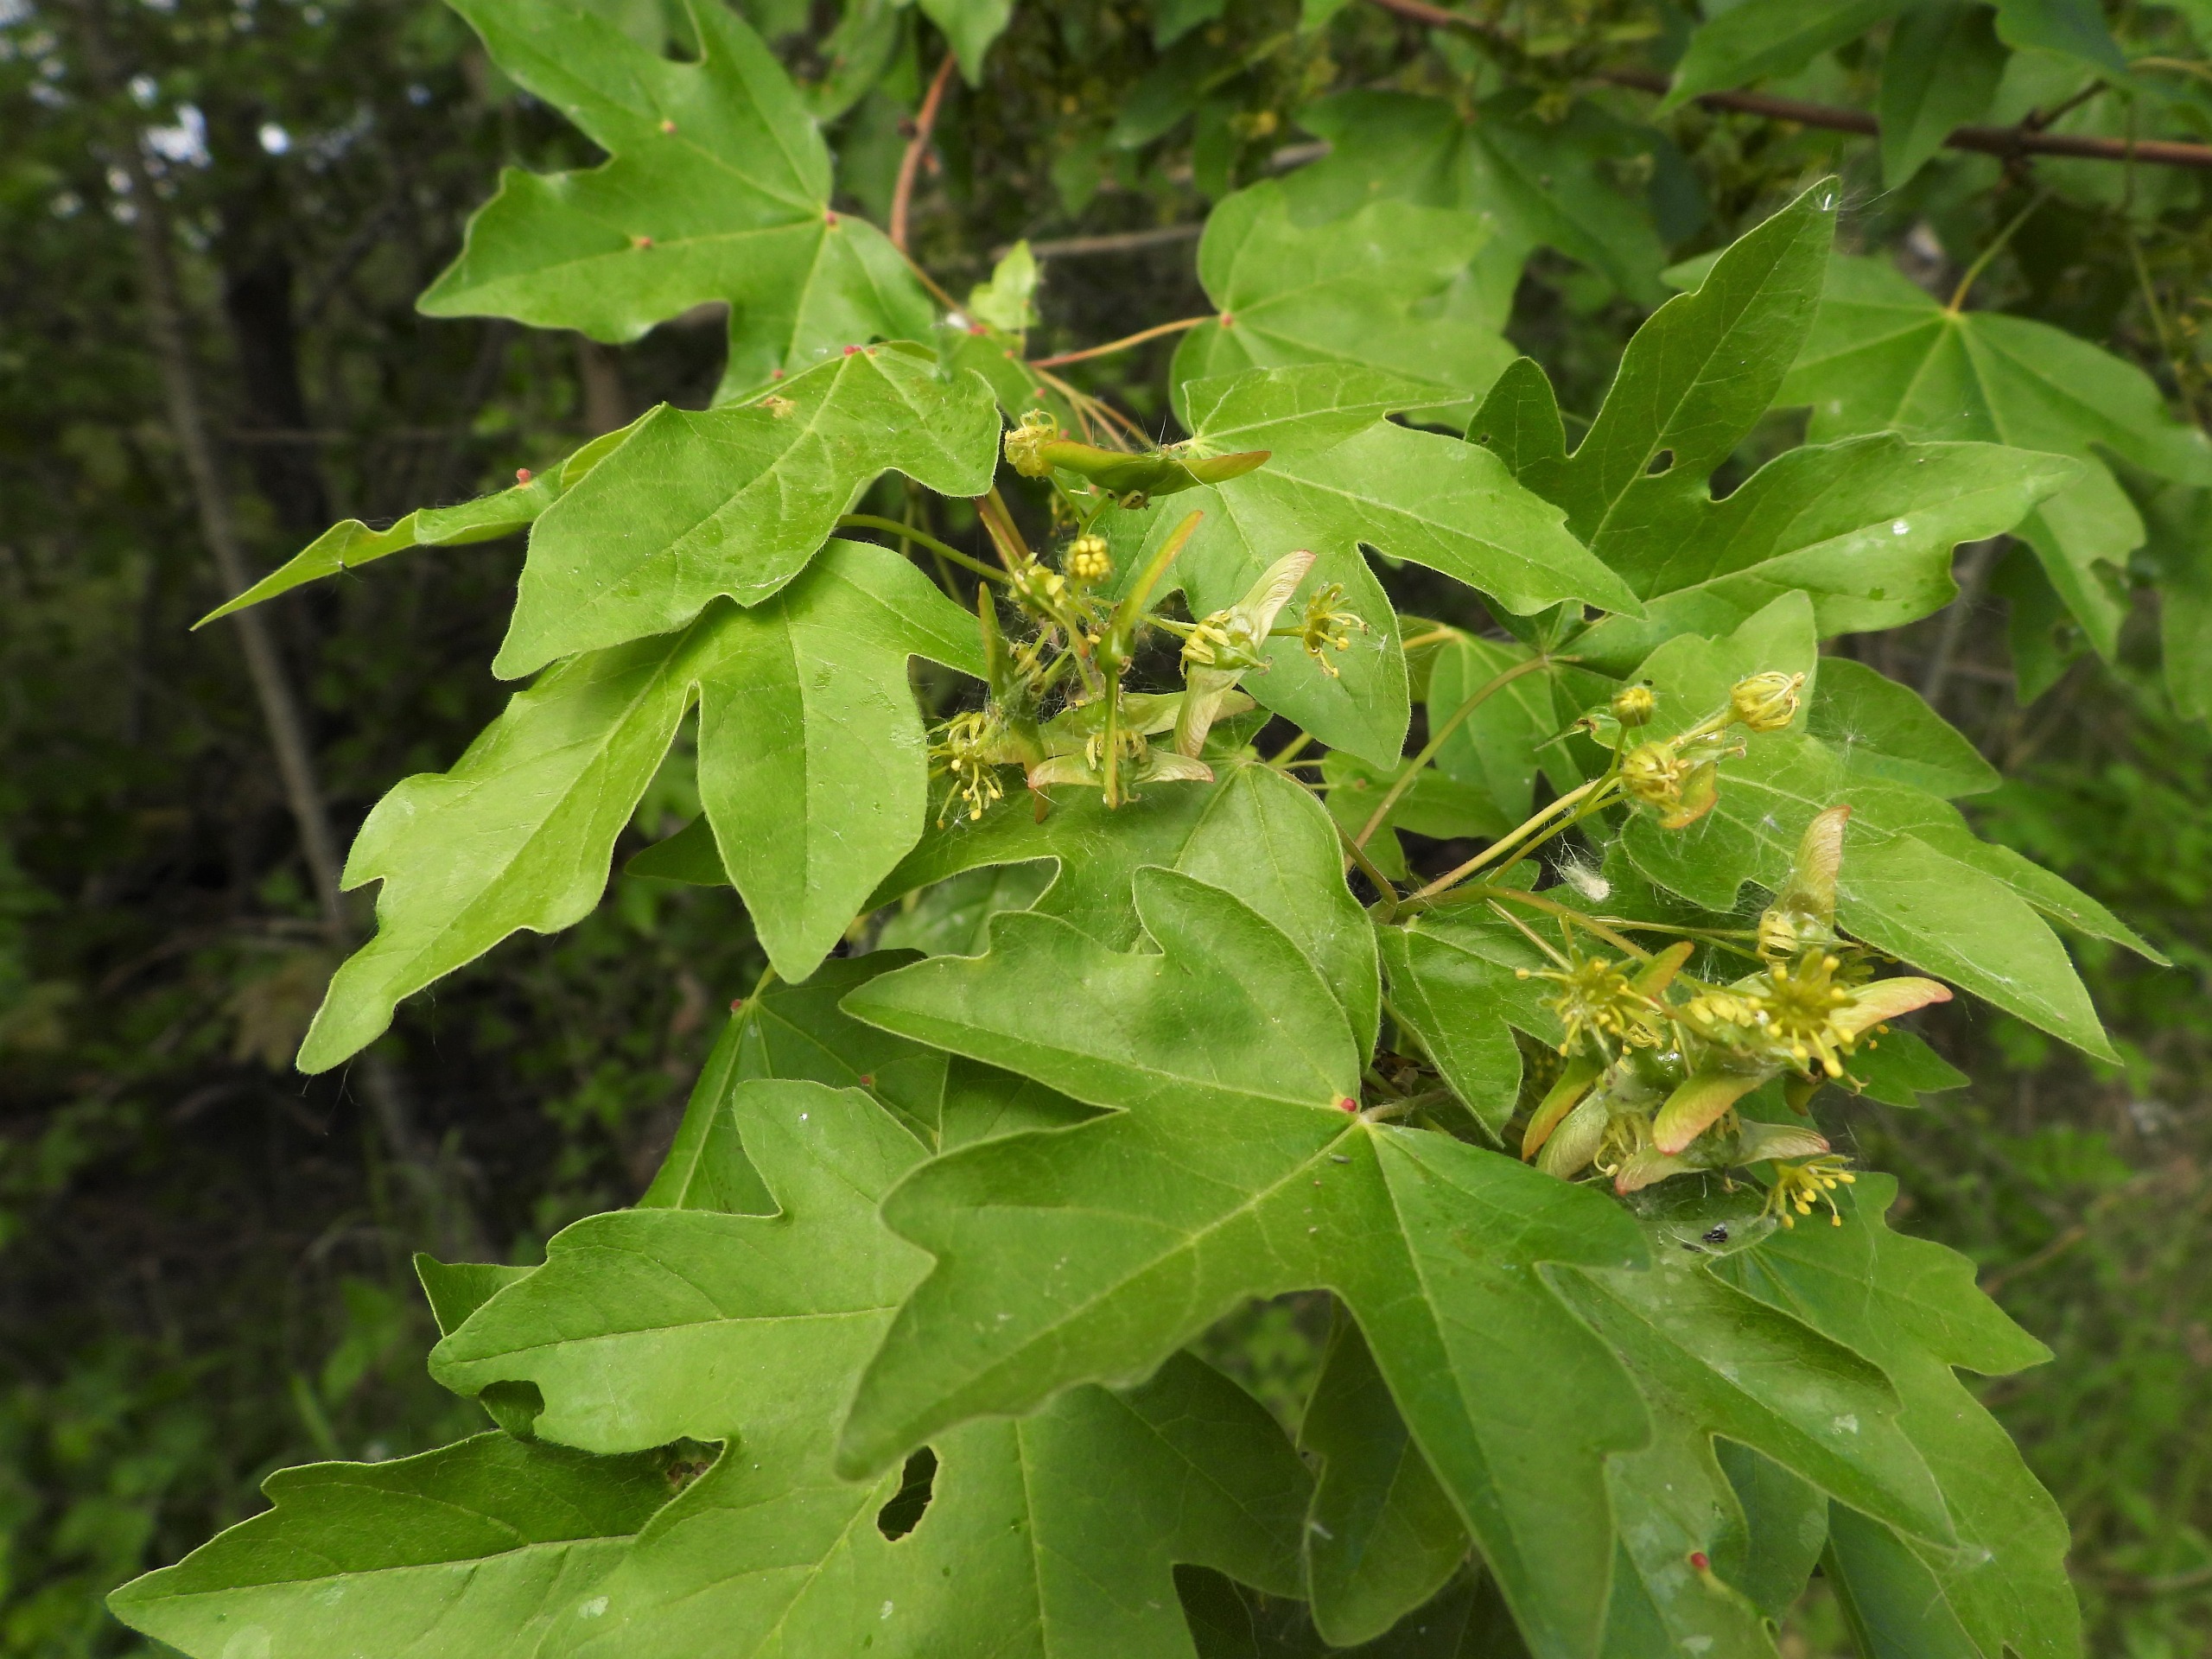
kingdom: Plantae
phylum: Tracheophyta
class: Magnoliopsida
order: Sapindales
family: Sapindaceae
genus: Acer
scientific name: Acer campestre
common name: Navr
